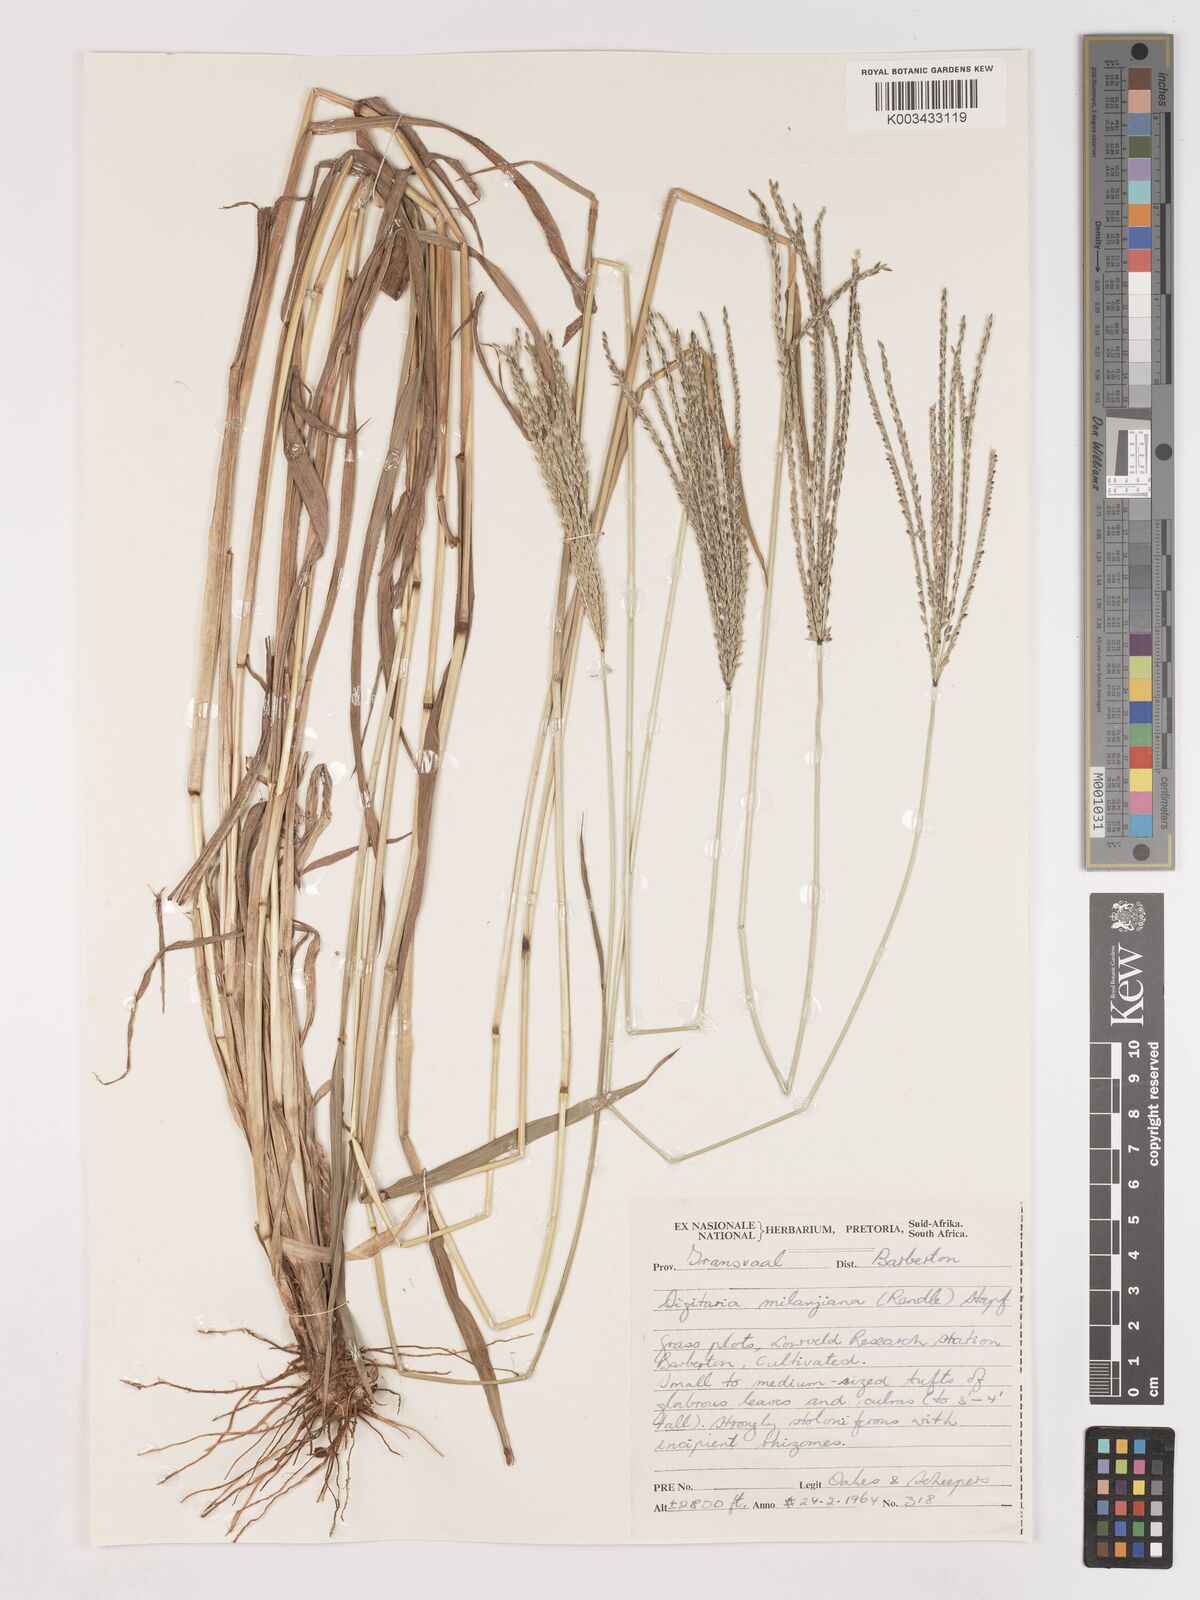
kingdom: Plantae
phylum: Tracheophyta
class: Liliopsida
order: Poales
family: Poaceae
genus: Digitaria
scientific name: Digitaria milanjiana
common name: Madagascar crabgrass
